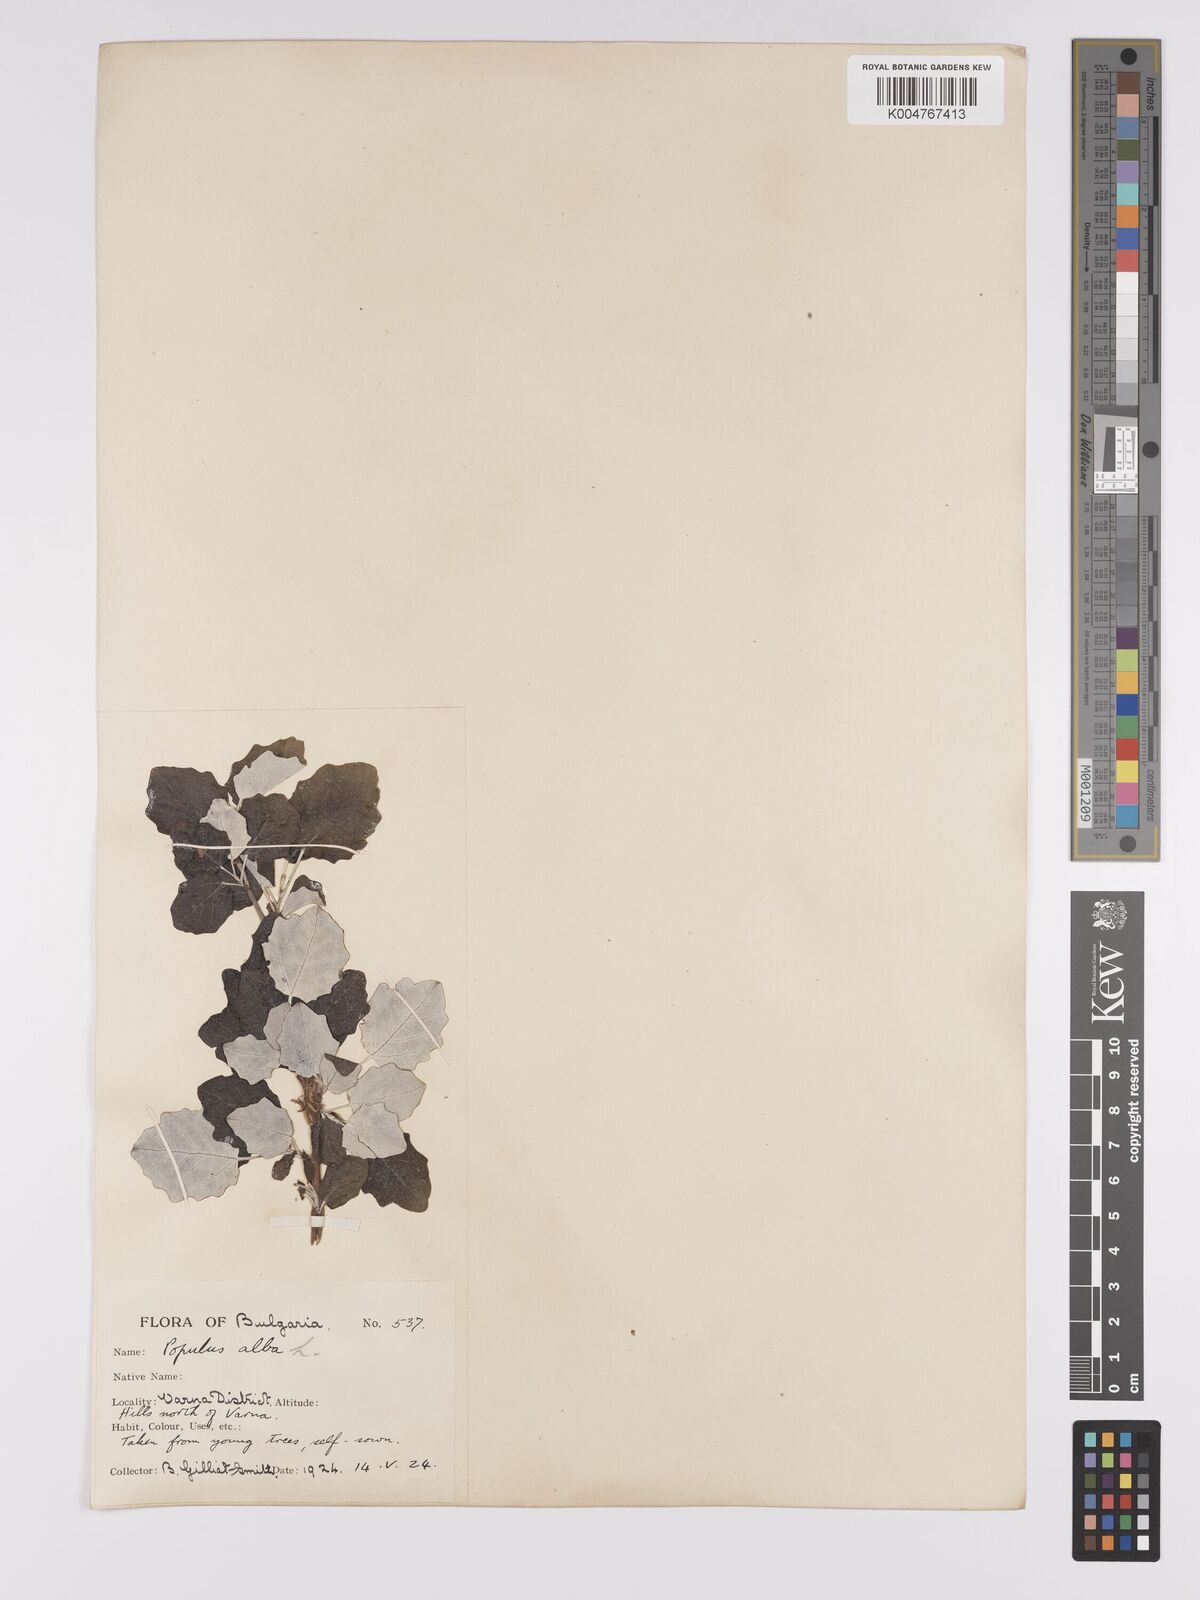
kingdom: Plantae
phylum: Tracheophyta
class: Magnoliopsida
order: Malpighiales
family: Salicaceae
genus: Populus
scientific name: Populus alba
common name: White poplar
